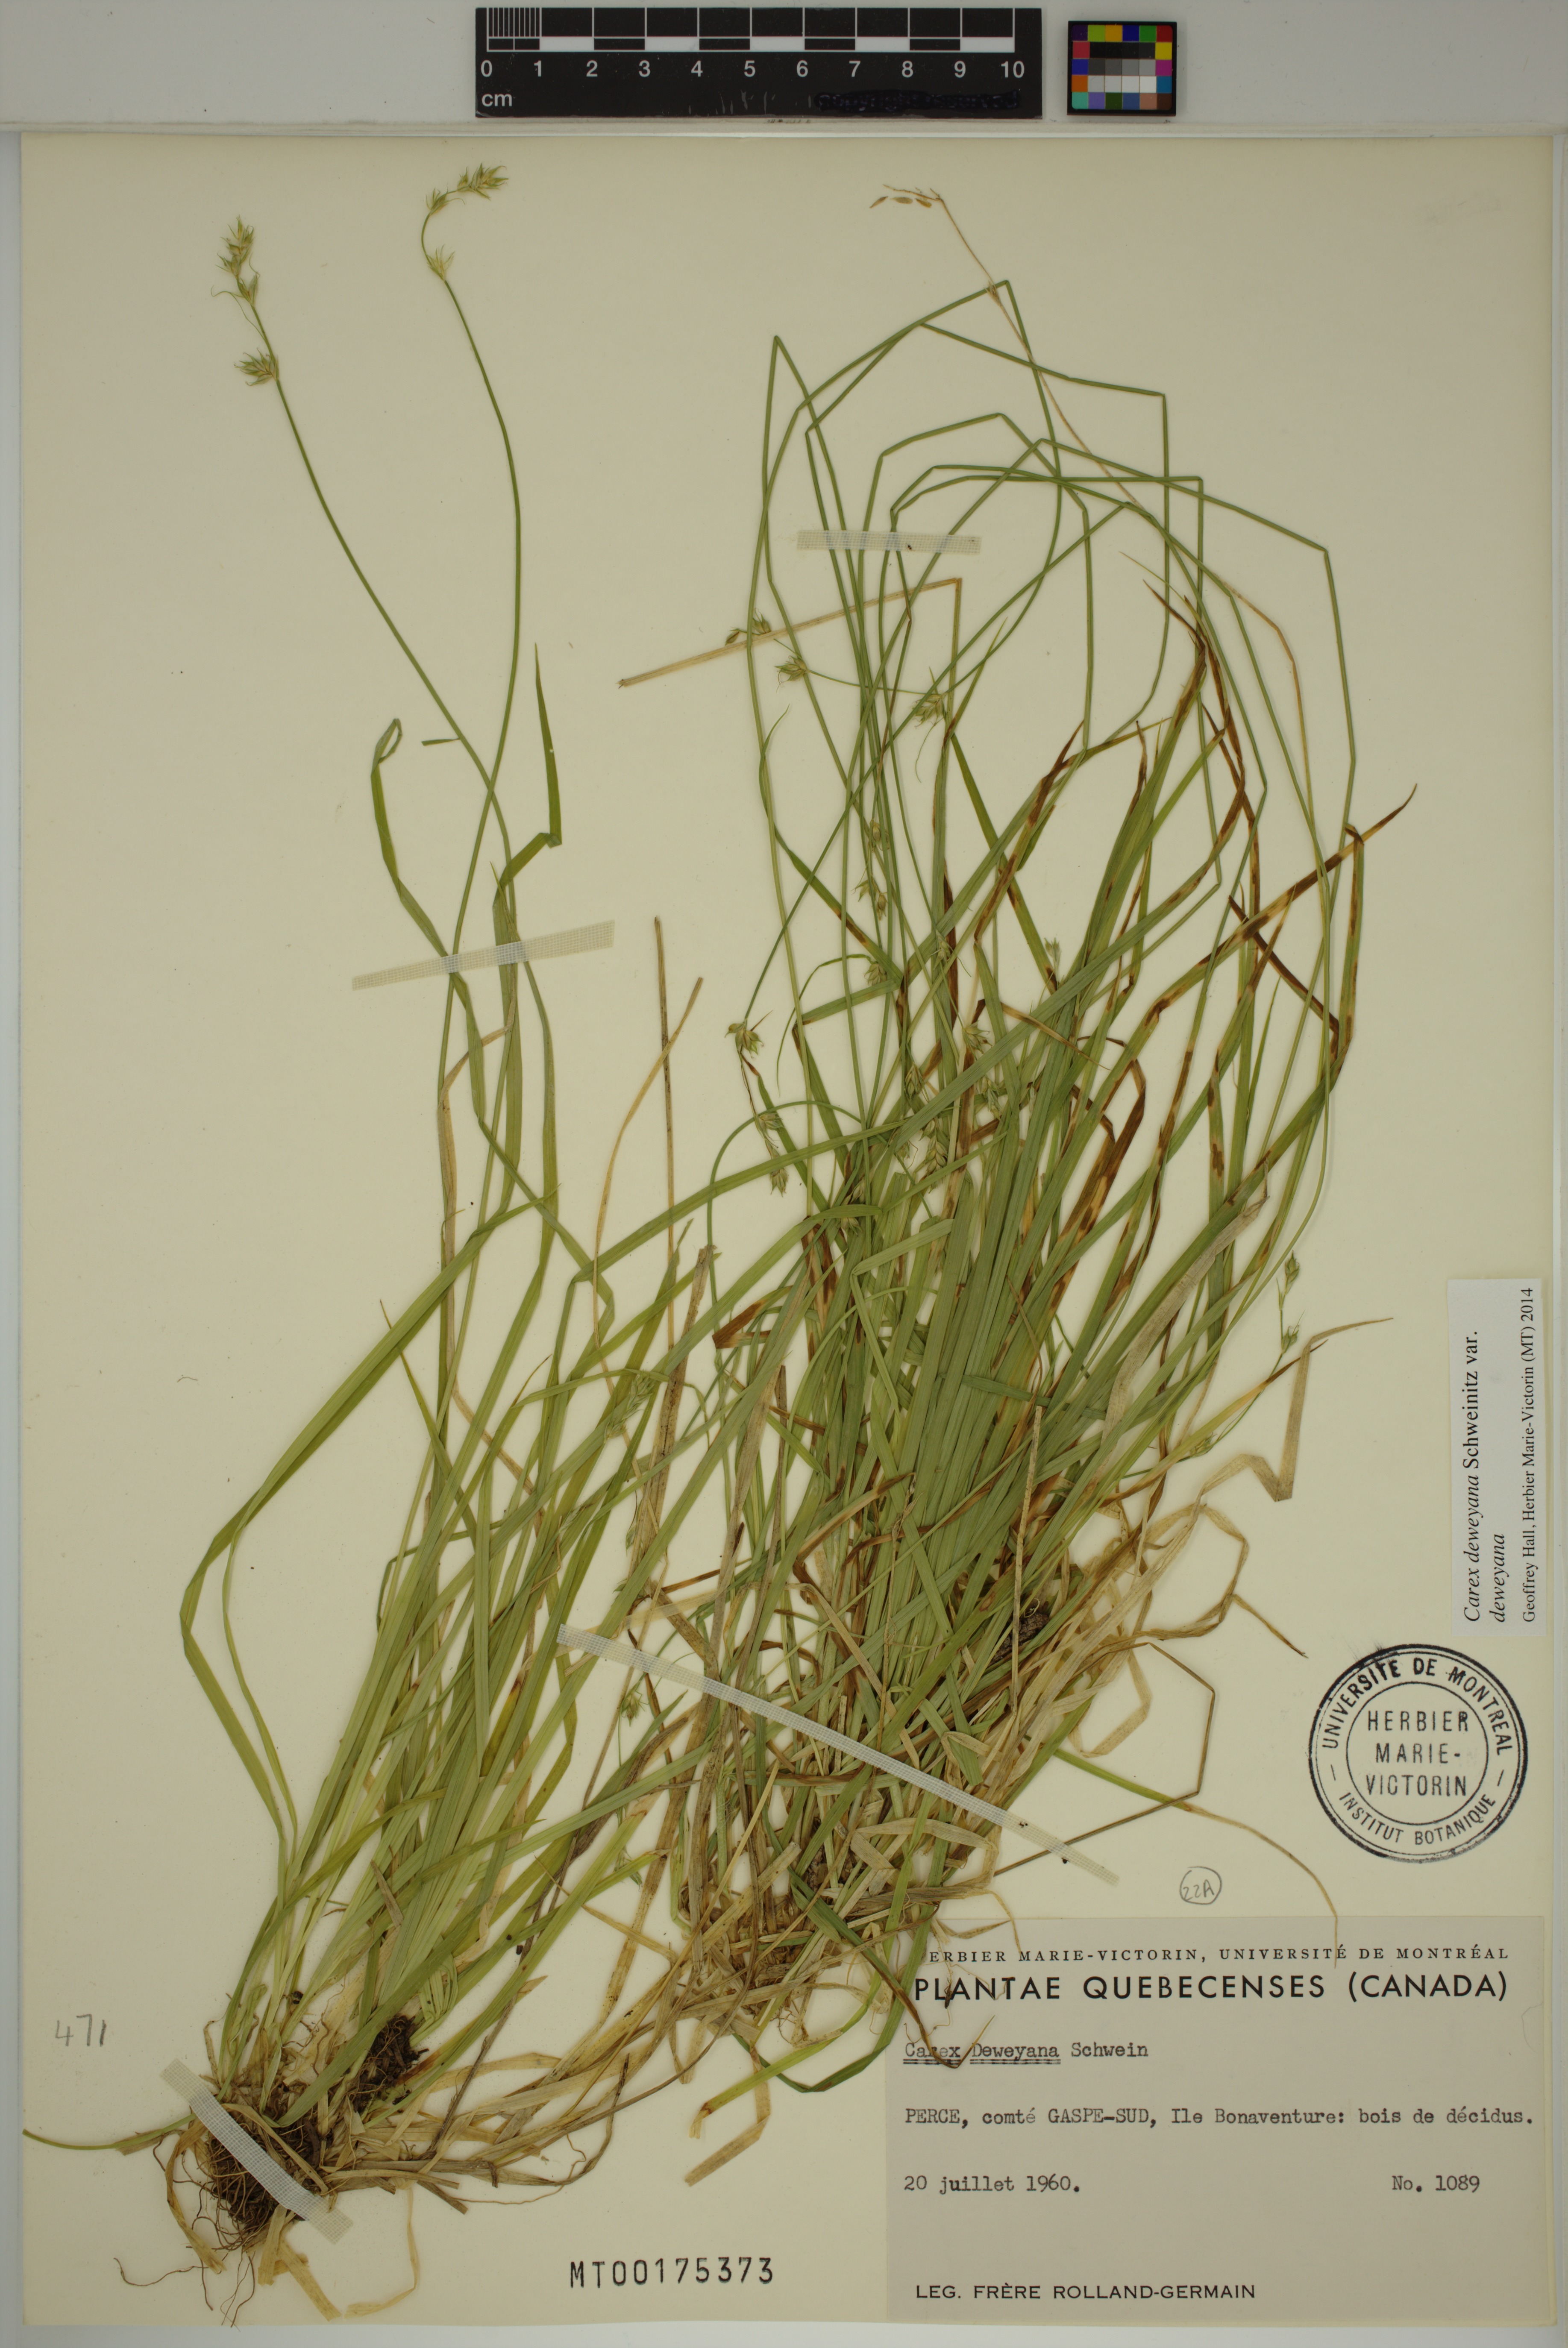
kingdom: Plantae
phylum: Tracheophyta
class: Liliopsida
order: Poales
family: Cyperaceae
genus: Carex
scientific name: Carex deweyana
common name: Dewey's sedge
